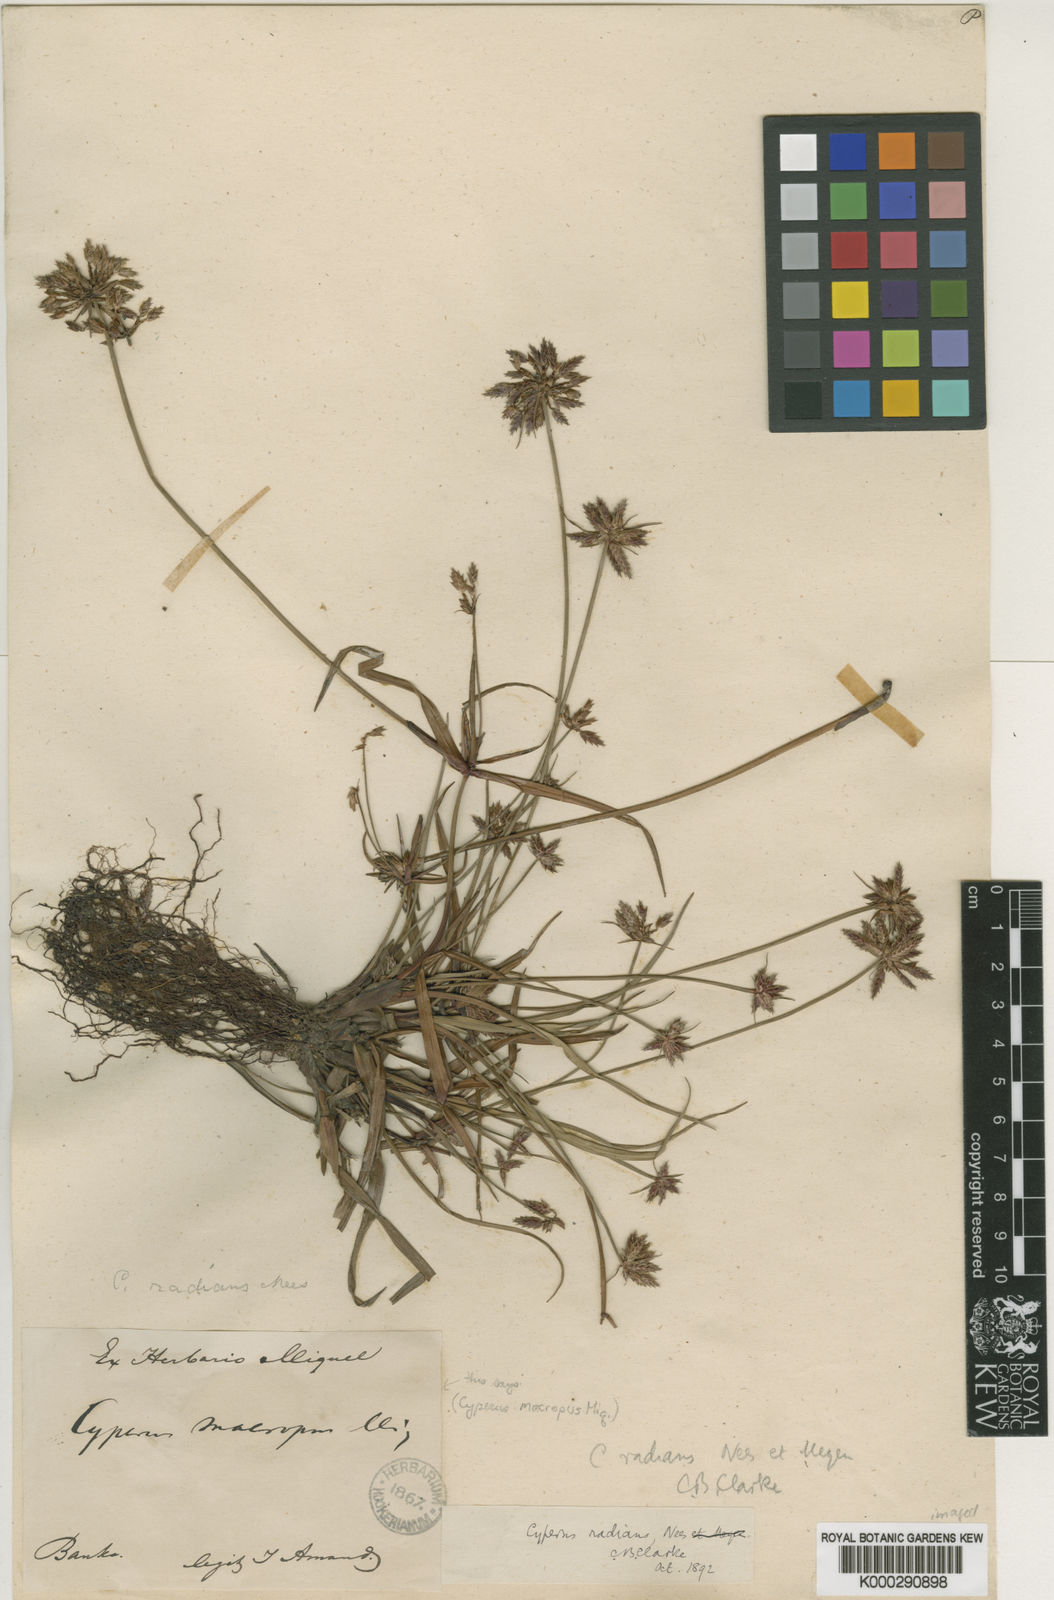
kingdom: Plantae
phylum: Tracheophyta
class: Liliopsida
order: Poales
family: Cyperaceae
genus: Cyperus
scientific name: Cyperus
